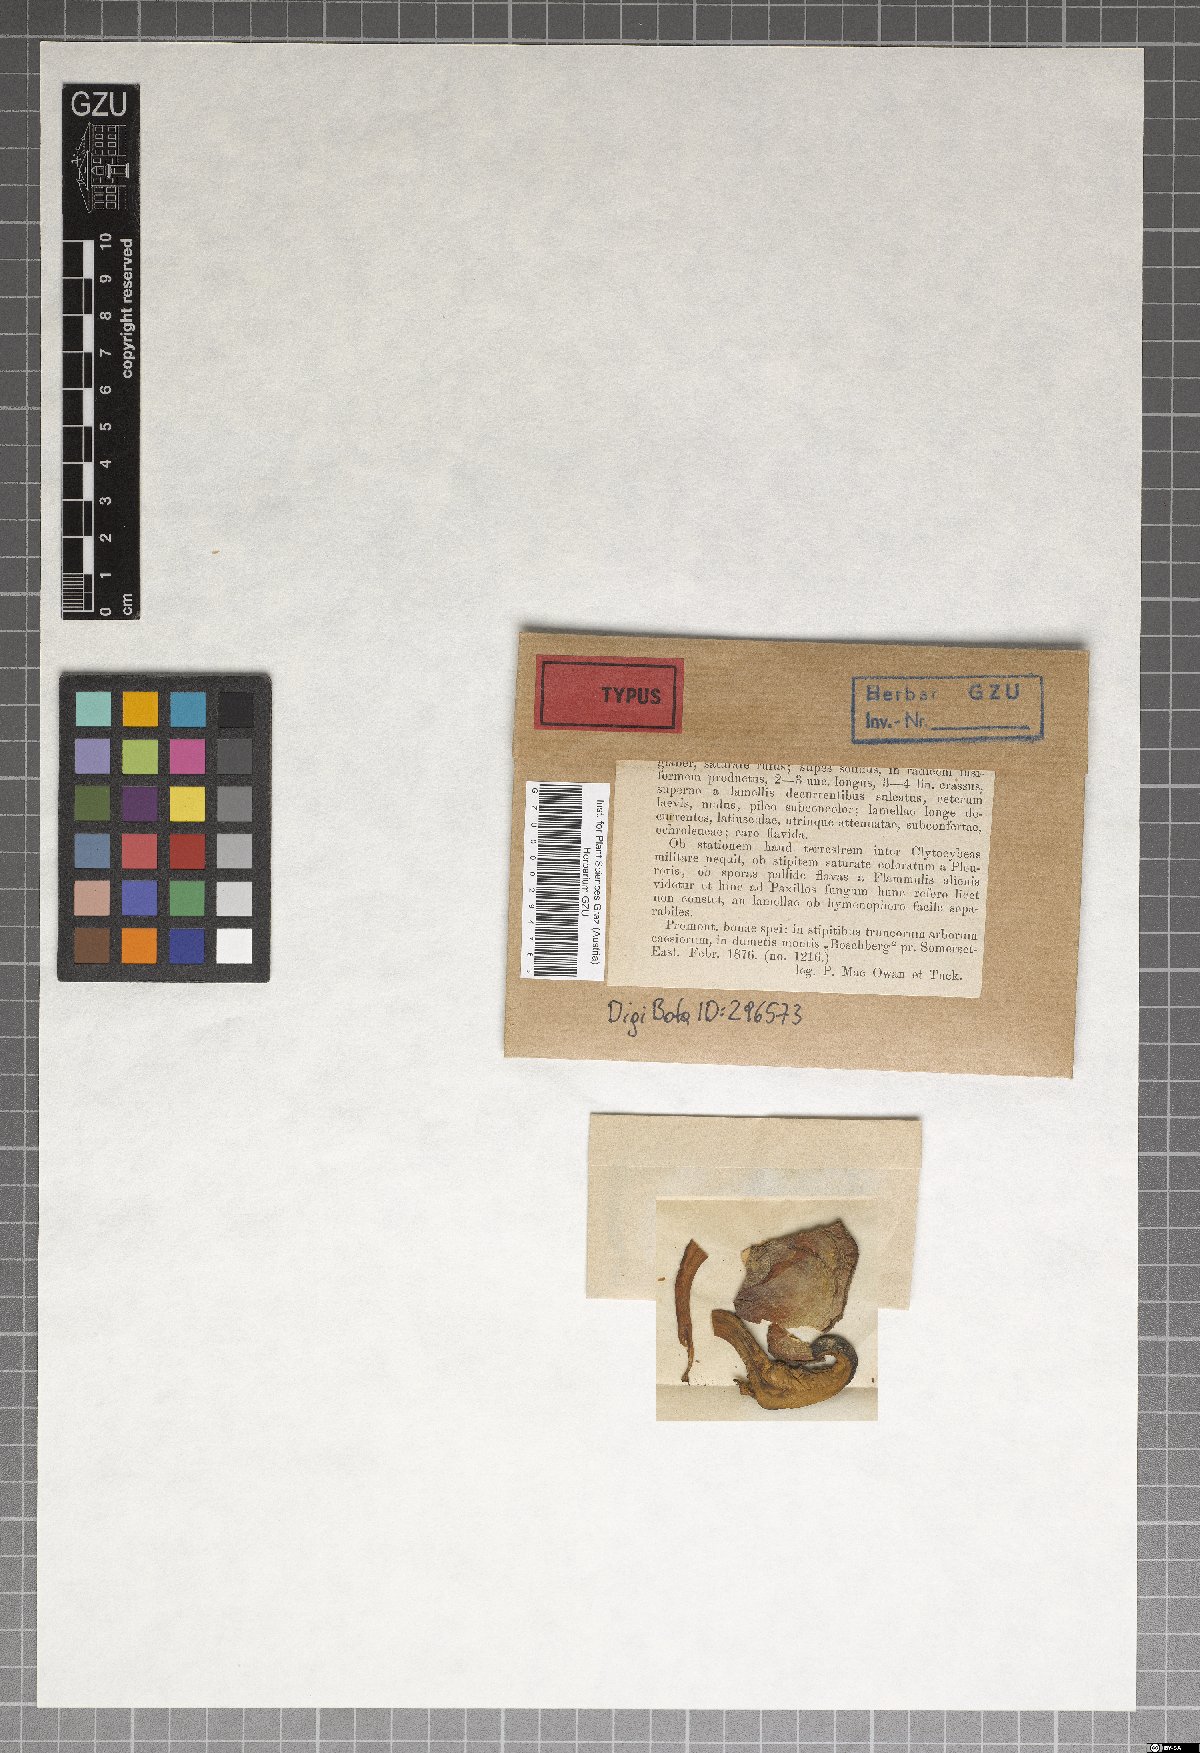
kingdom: Fungi
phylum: Basidiomycota
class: Agaricomycetes
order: Boletales
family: Paxillaceae
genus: Paxillus
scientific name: Paxillus atraetopus
